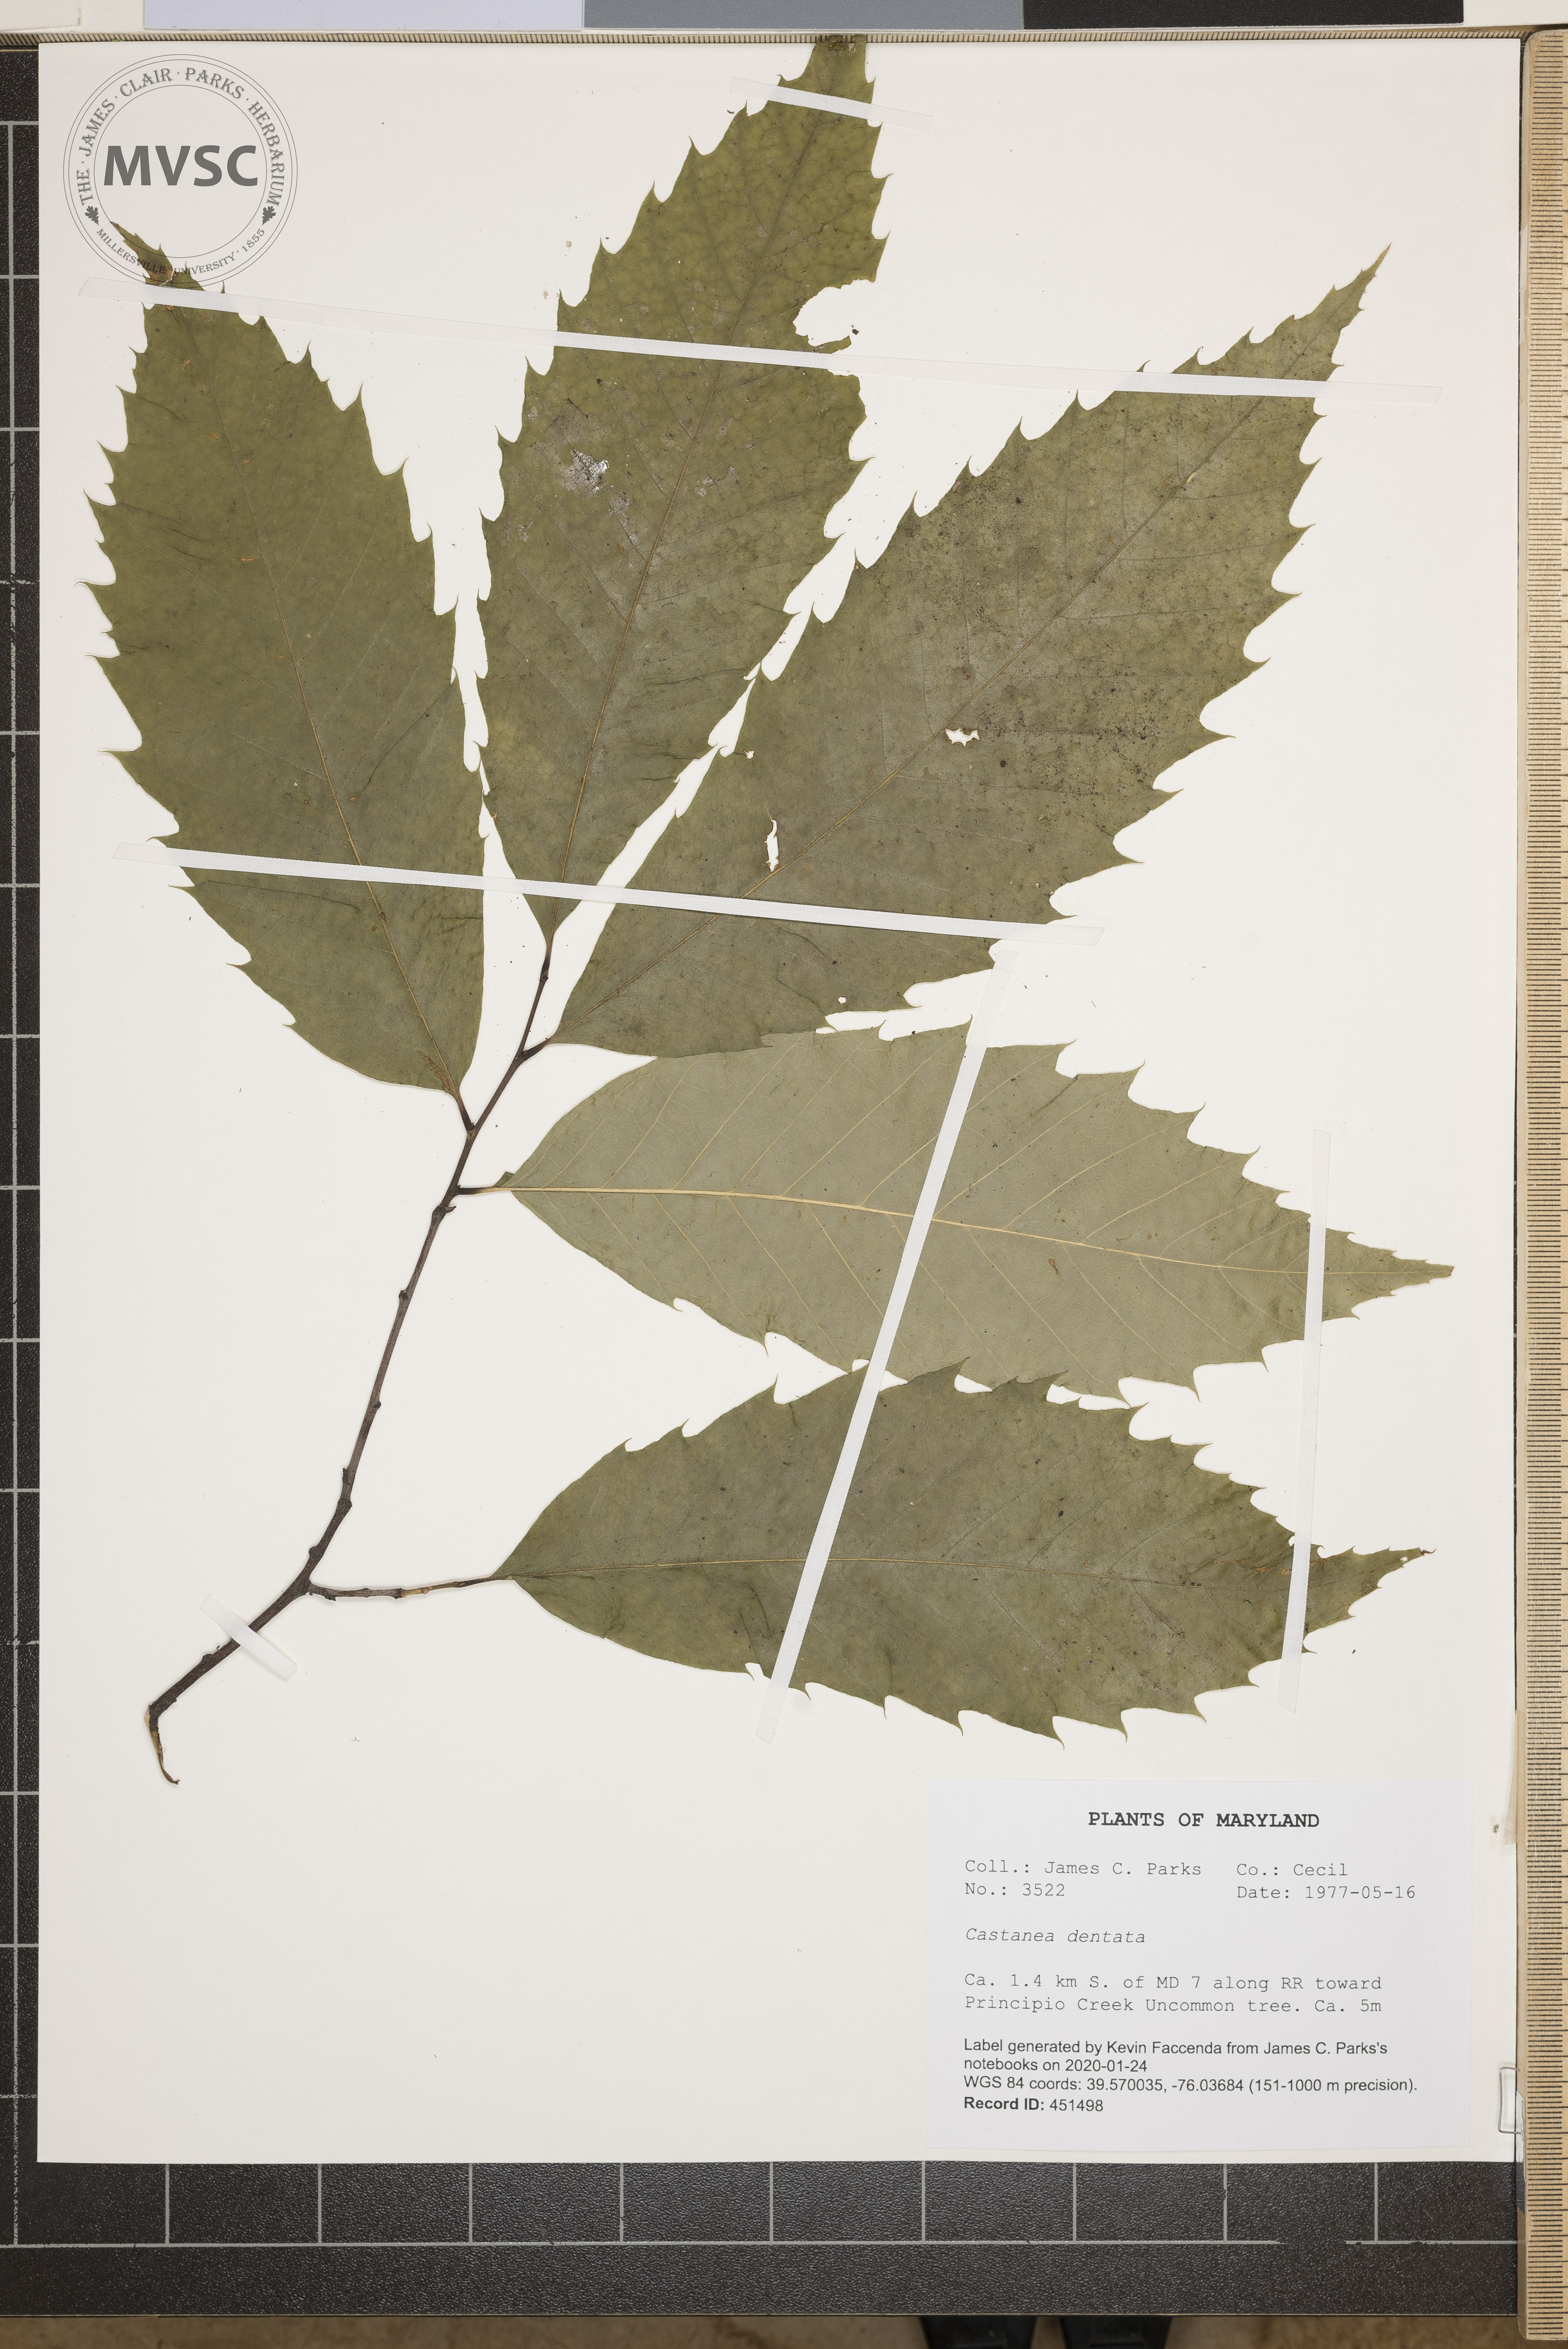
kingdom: Plantae
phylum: Tracheophyta
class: Magnoliopsida
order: Fagales
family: Fagaceae
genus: Castanea
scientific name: Castanea dentata
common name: American chestnut
